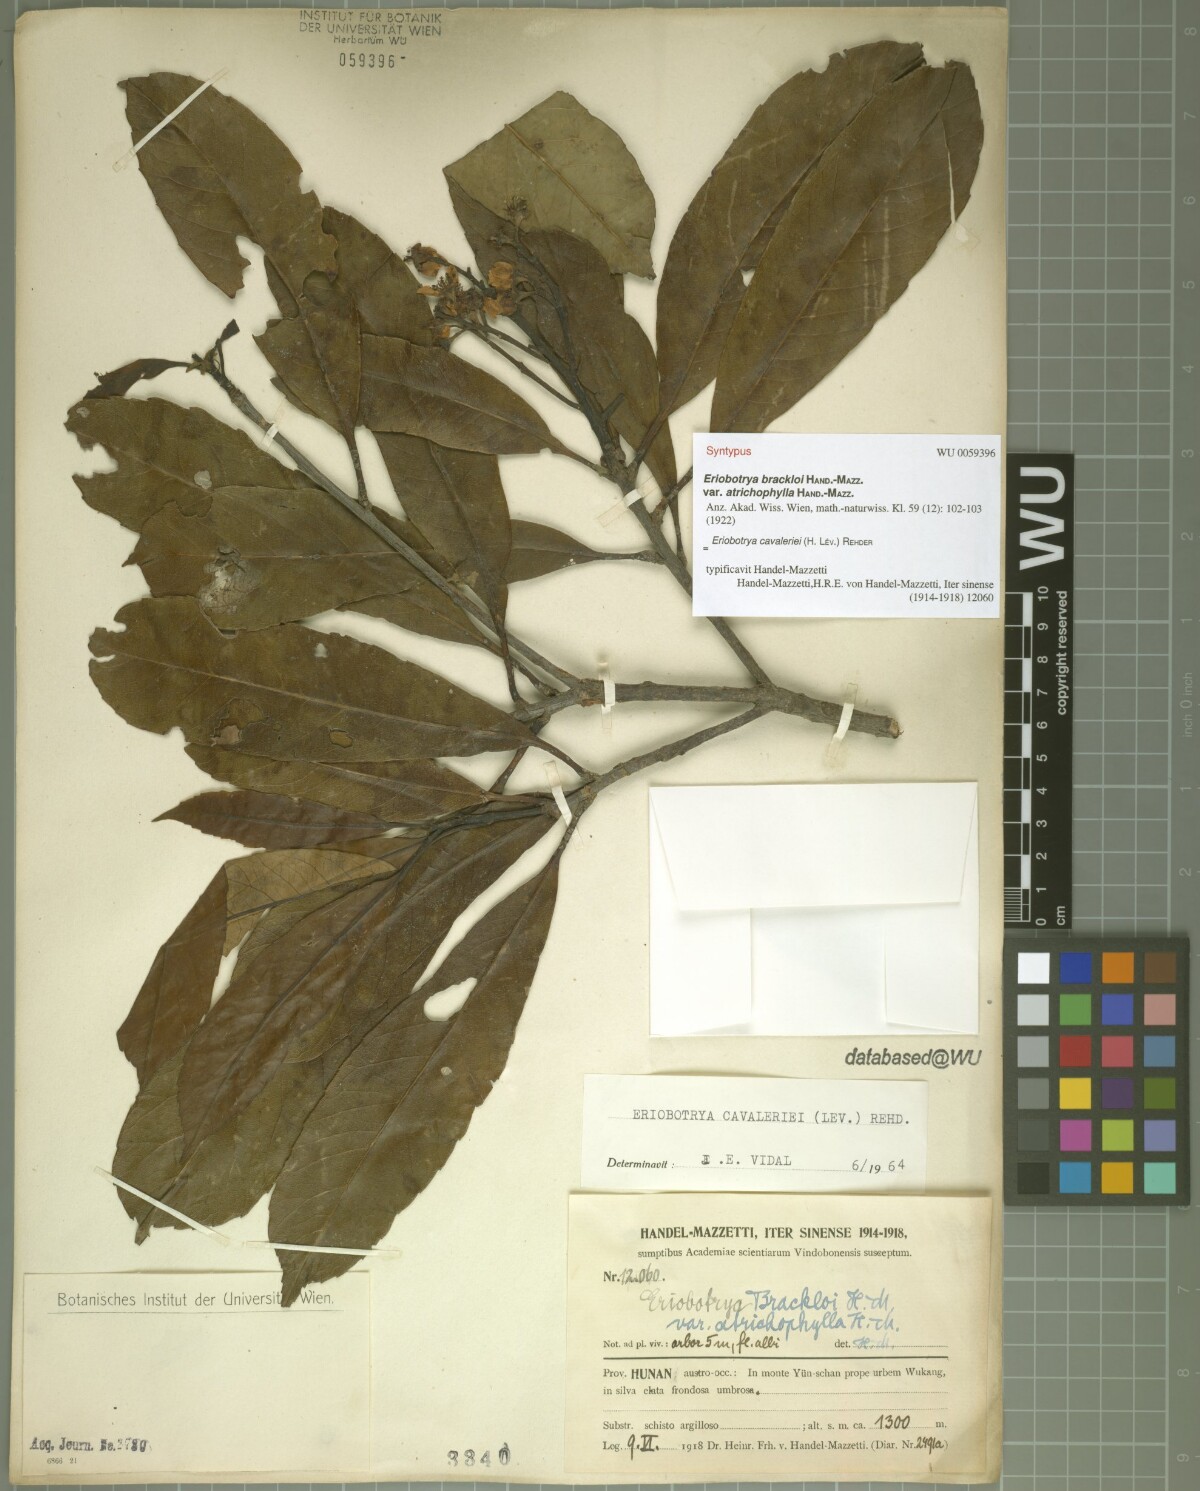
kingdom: Plantae
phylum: Tracheophyta
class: Magnoliopsida
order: Rosales
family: Rosaceae
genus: Rhaphiolepis
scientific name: Rhaphiolepis cavaleriei
